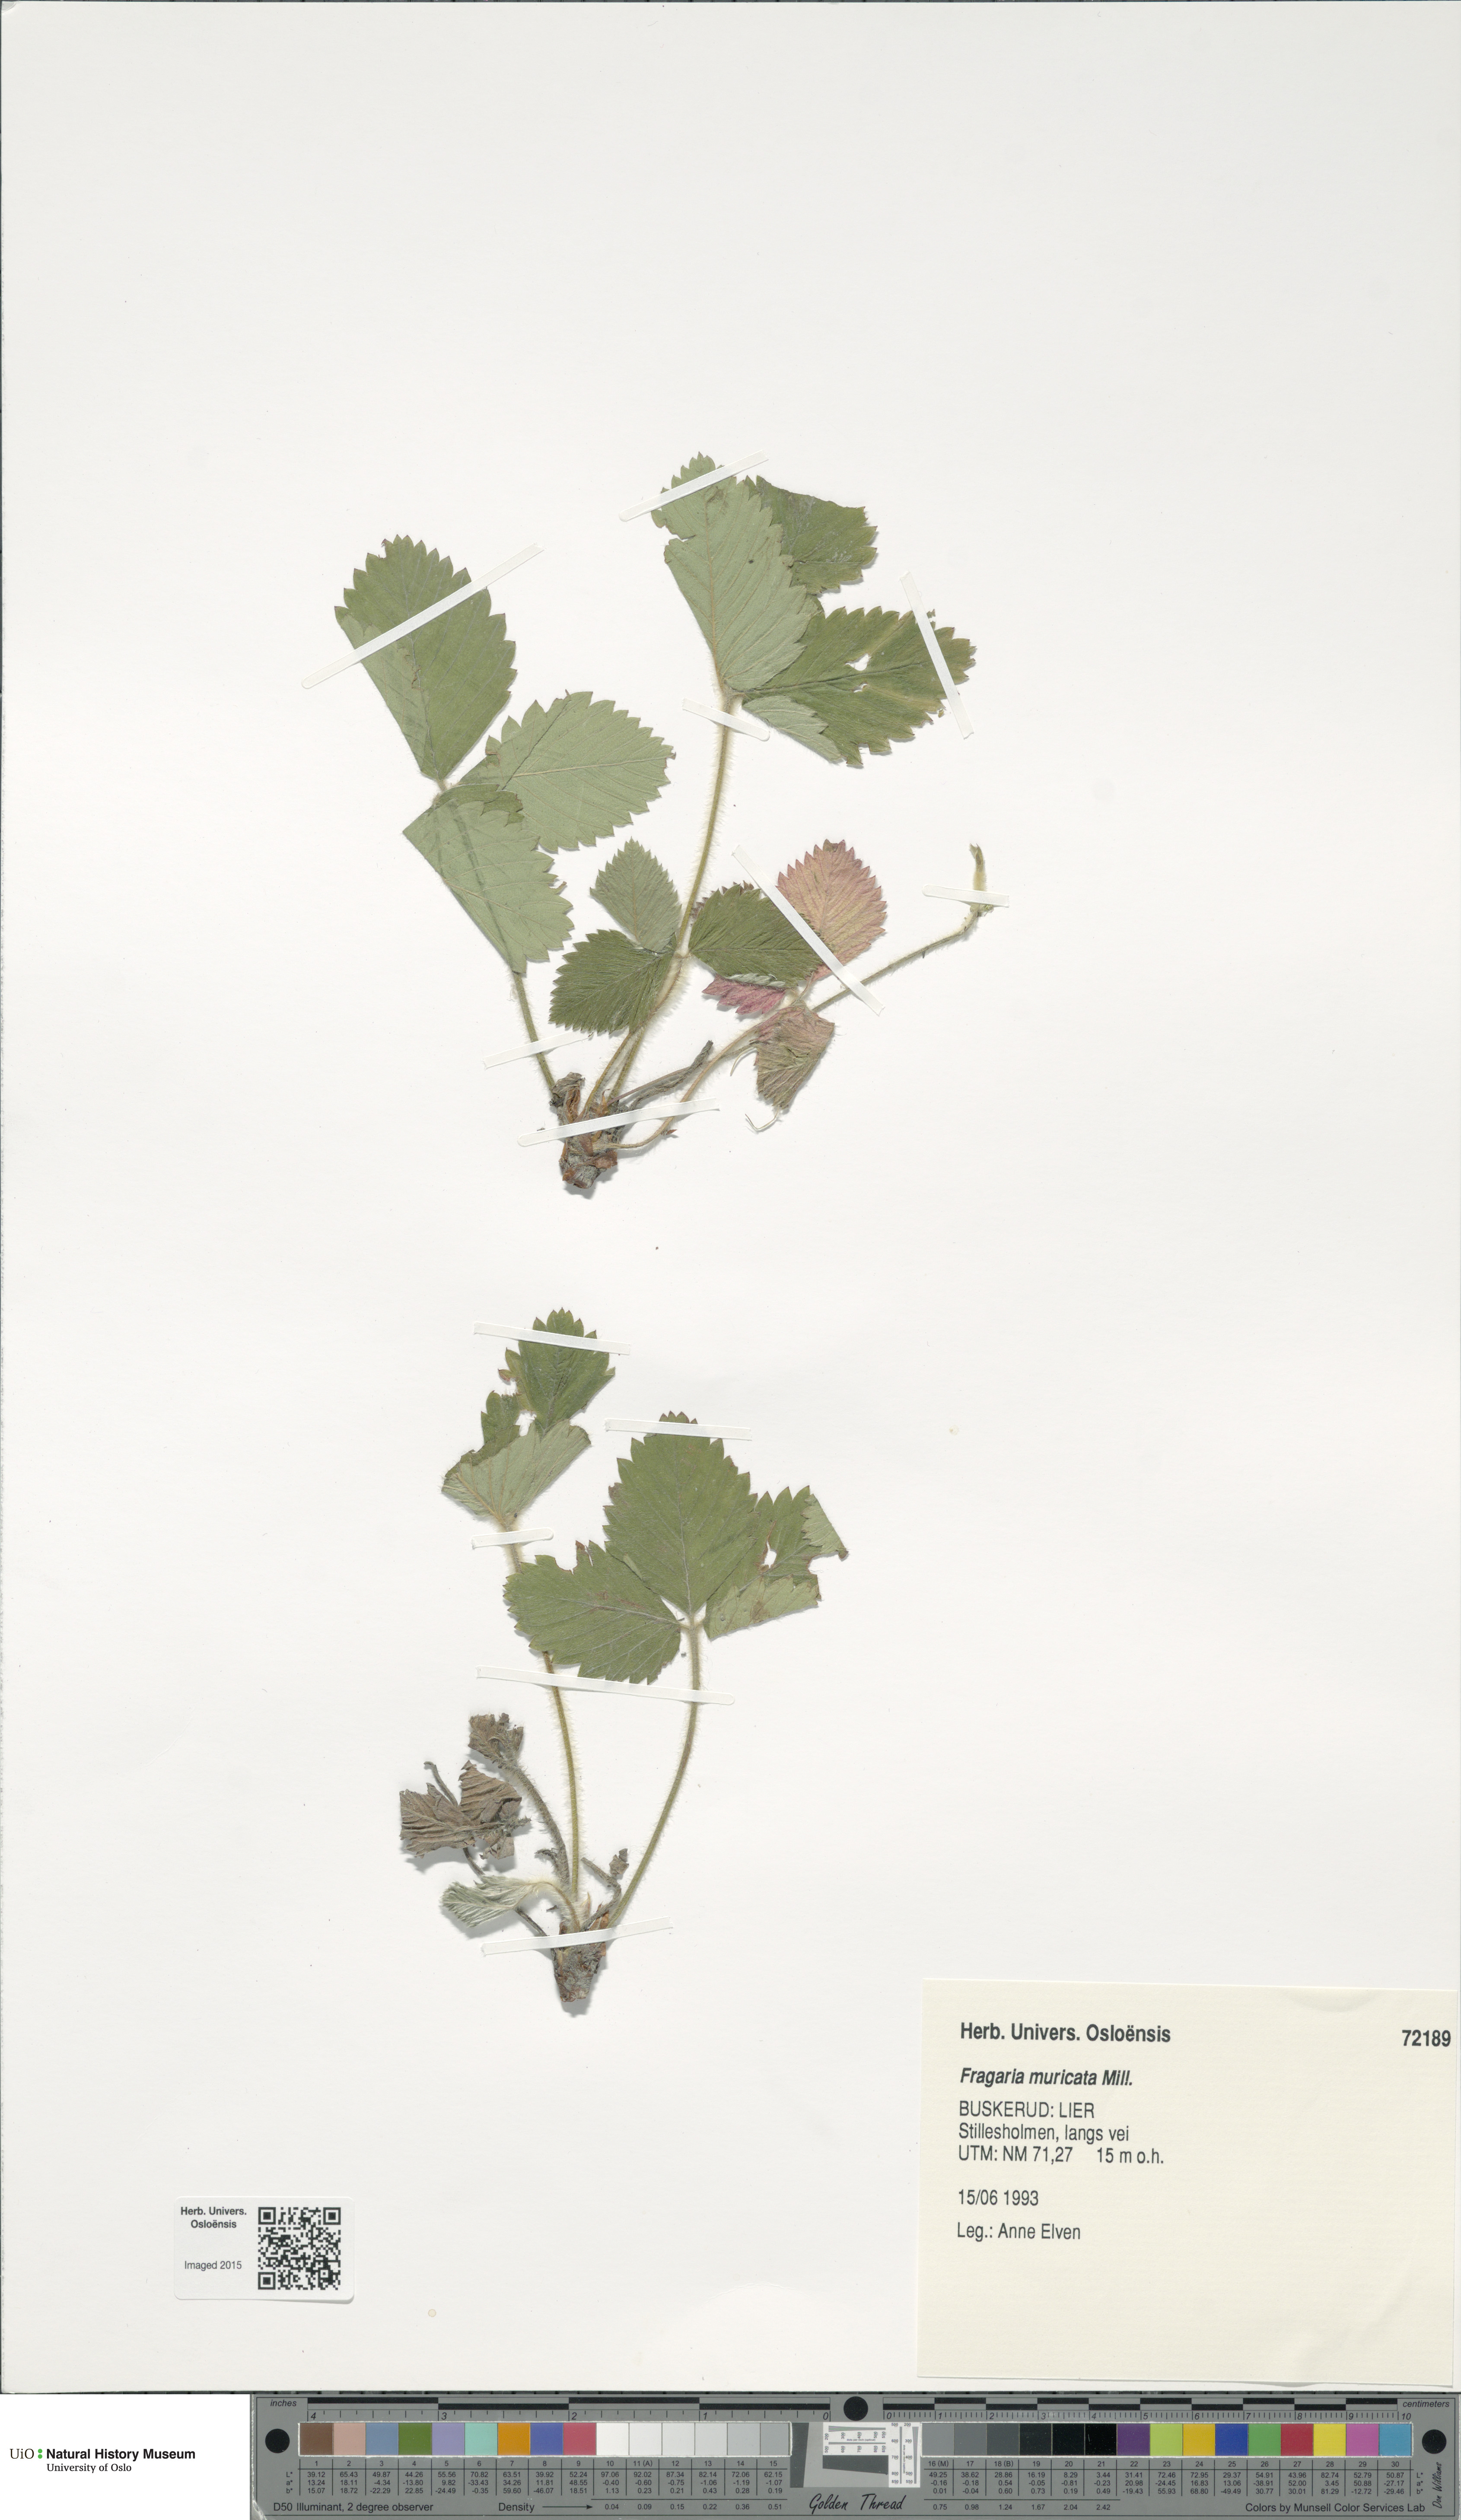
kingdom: Plantae
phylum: Tracheophyta
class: Magnoliopsida
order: Rosales
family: Rosaceae
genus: Fragaria
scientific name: Fragaria moschata
